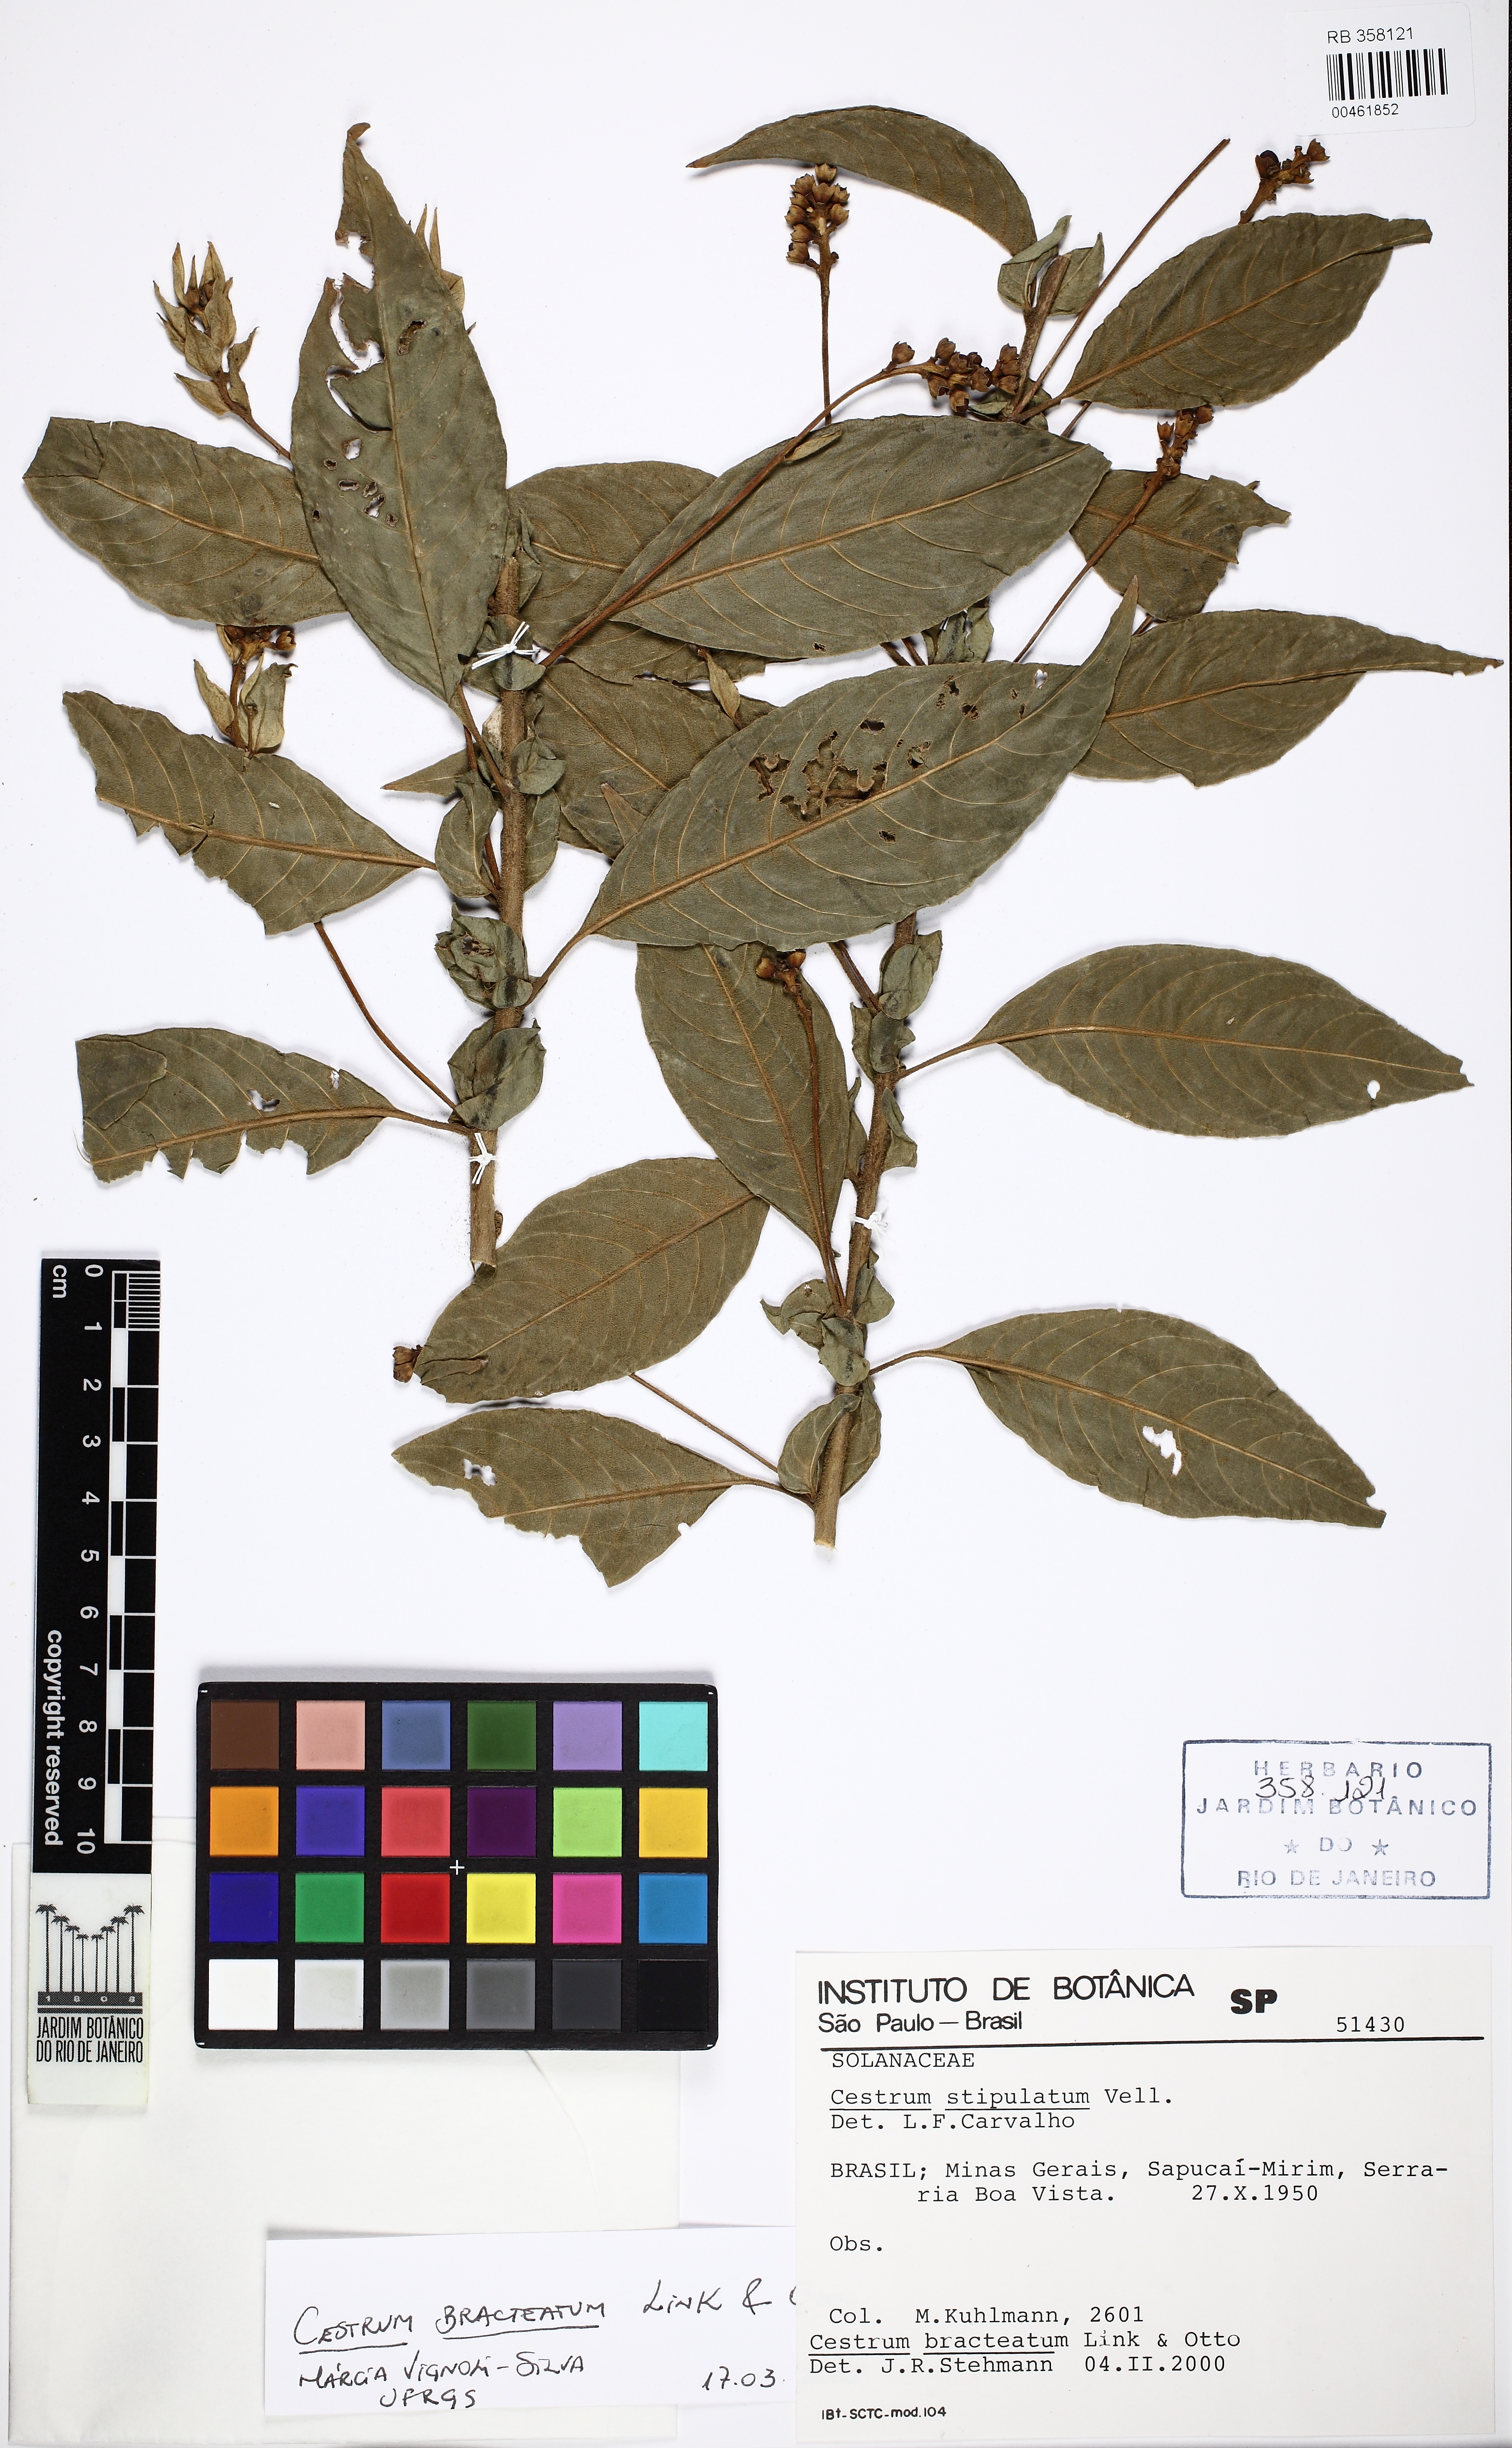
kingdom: Plantae
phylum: Tracheophyta
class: Magnoliopsida
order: Solanales
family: Solanaceae
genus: Cestrum
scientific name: Cestrum bracteatum
